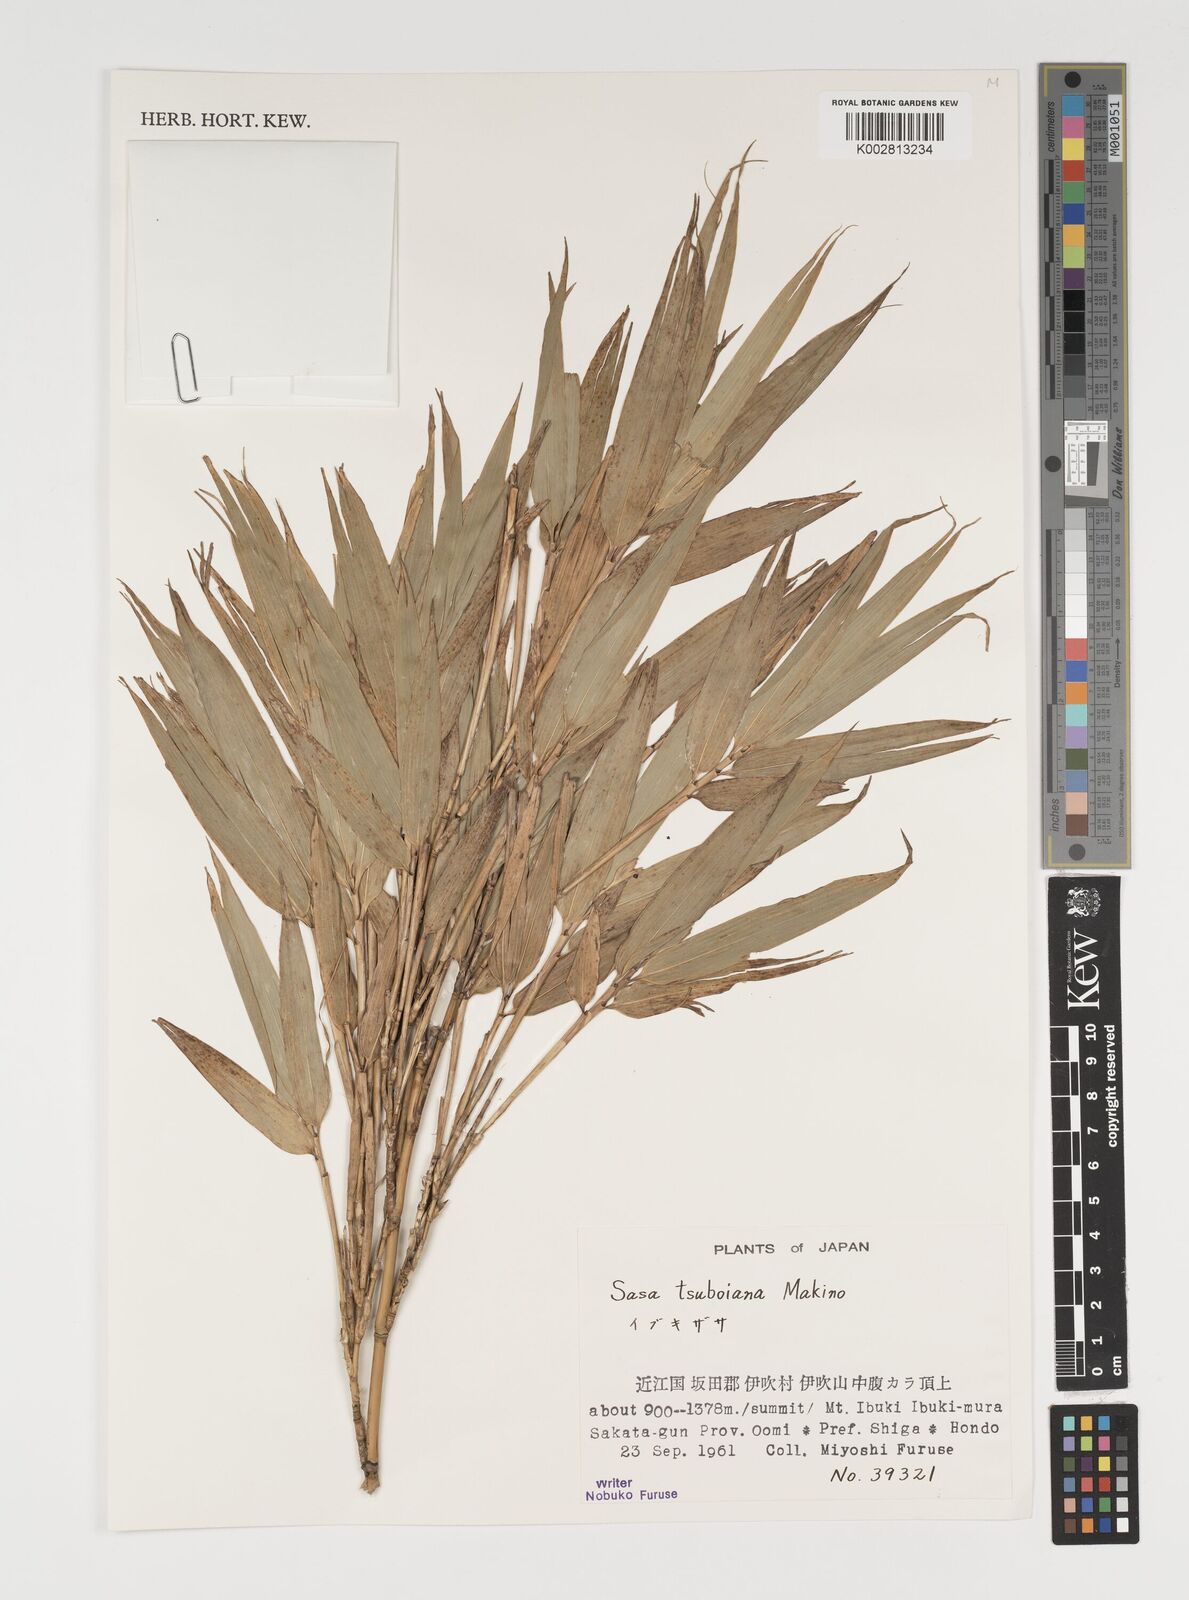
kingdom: Plantae
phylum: Tracheophyta
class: Liliopsida
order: Poales
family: Poaceae
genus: Sasa
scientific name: Sasa tsuboiana
